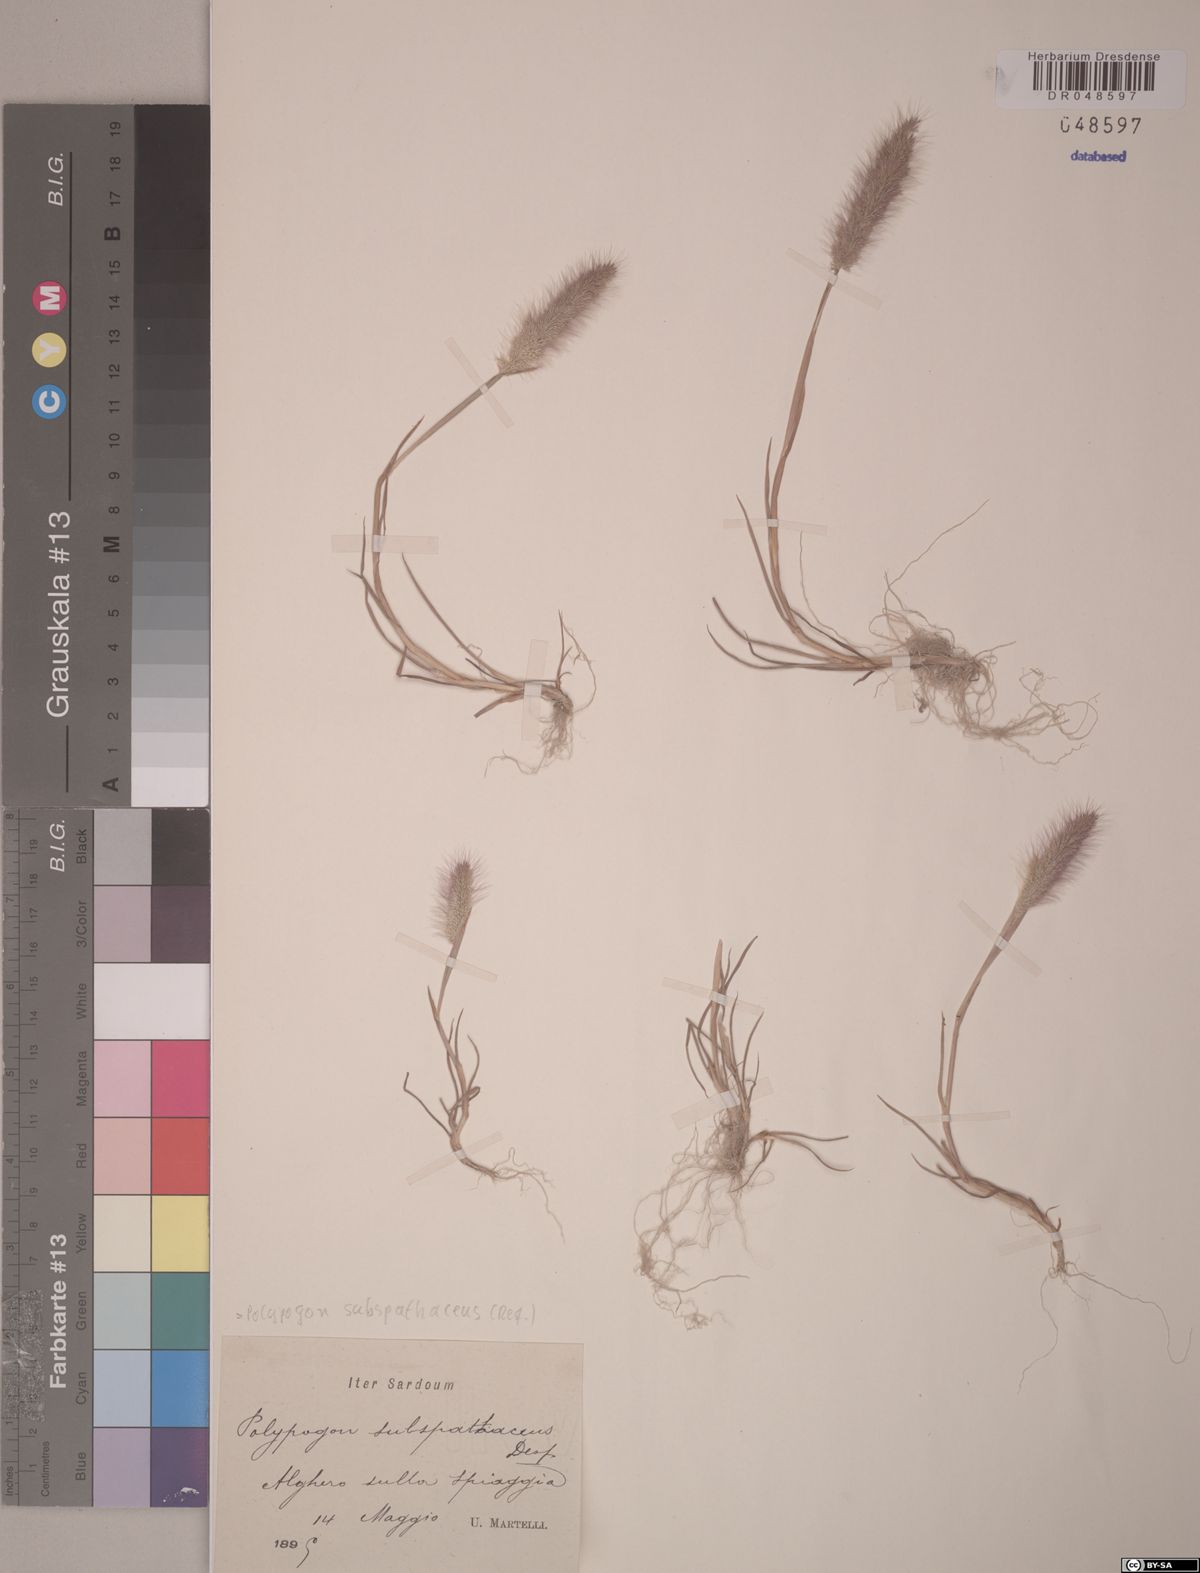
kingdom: Plantae
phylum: Tracheophyta
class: Liliopsida
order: Poales
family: Poaceae
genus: Polypogon
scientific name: Polypogon subspathaceus
